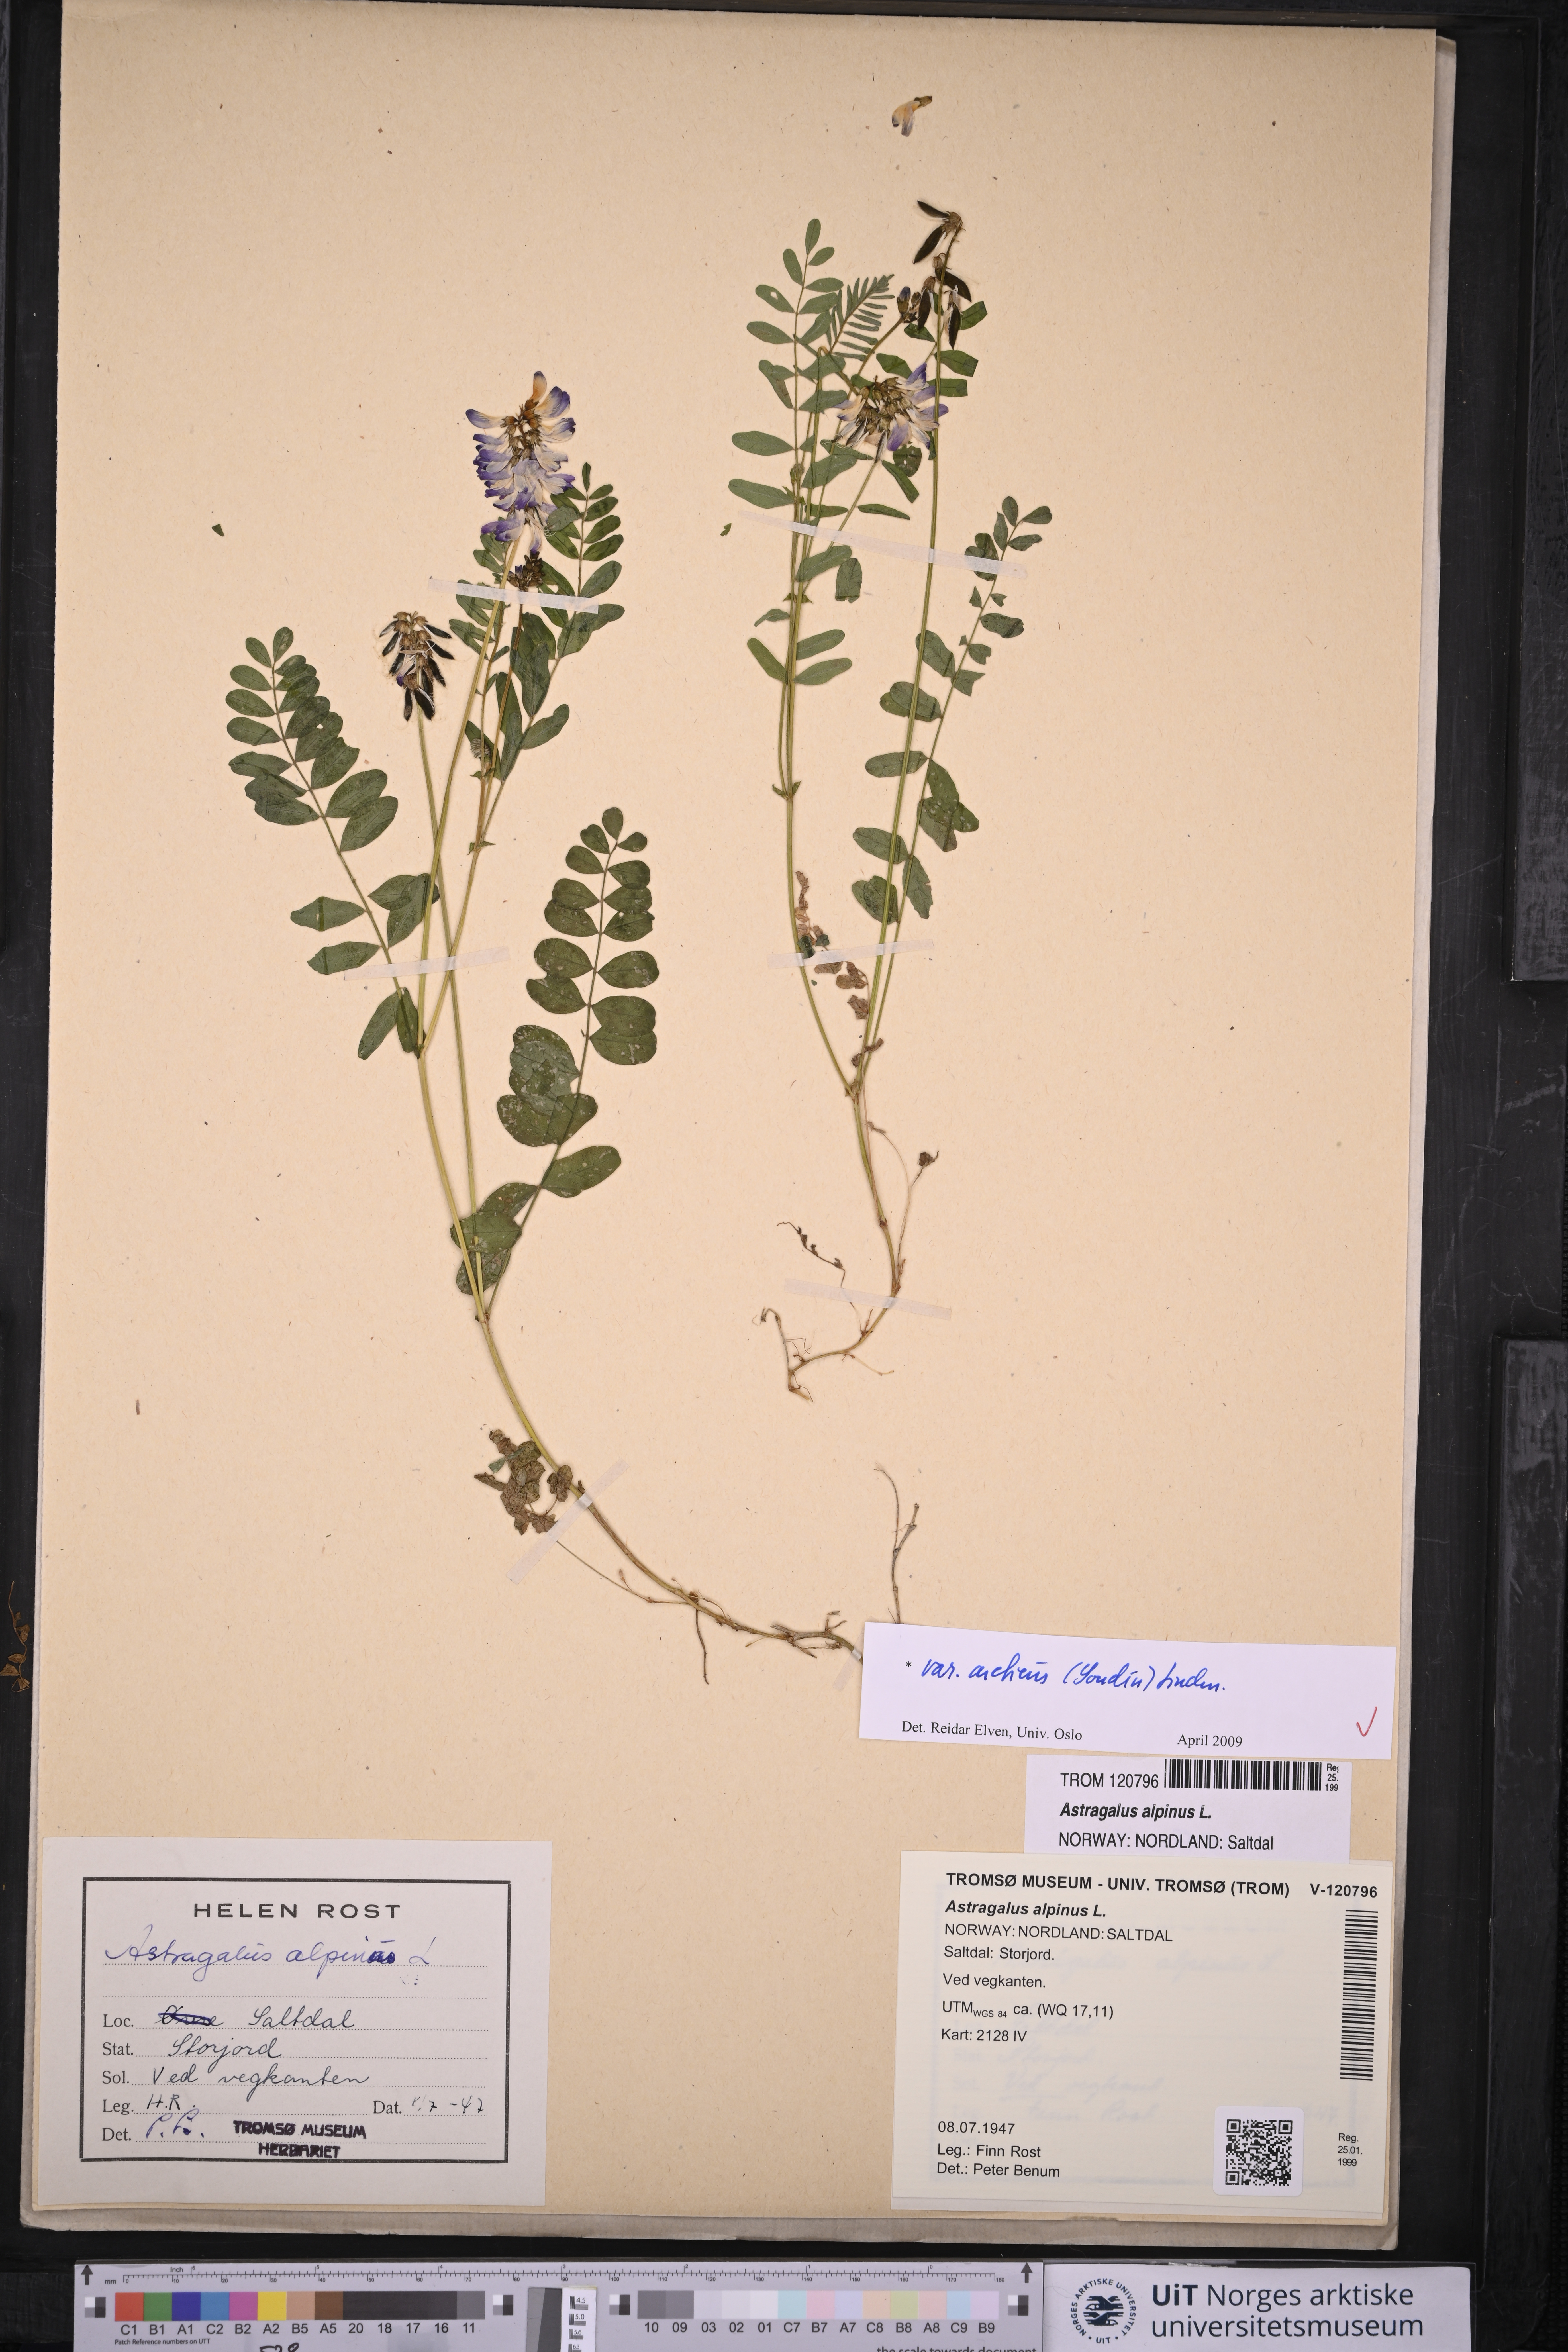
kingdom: Plantae
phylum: Tracheophyta
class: Magnoliopsida
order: Fabales
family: Fabaceae
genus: Astragalus
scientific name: Astragalus norvegicus
